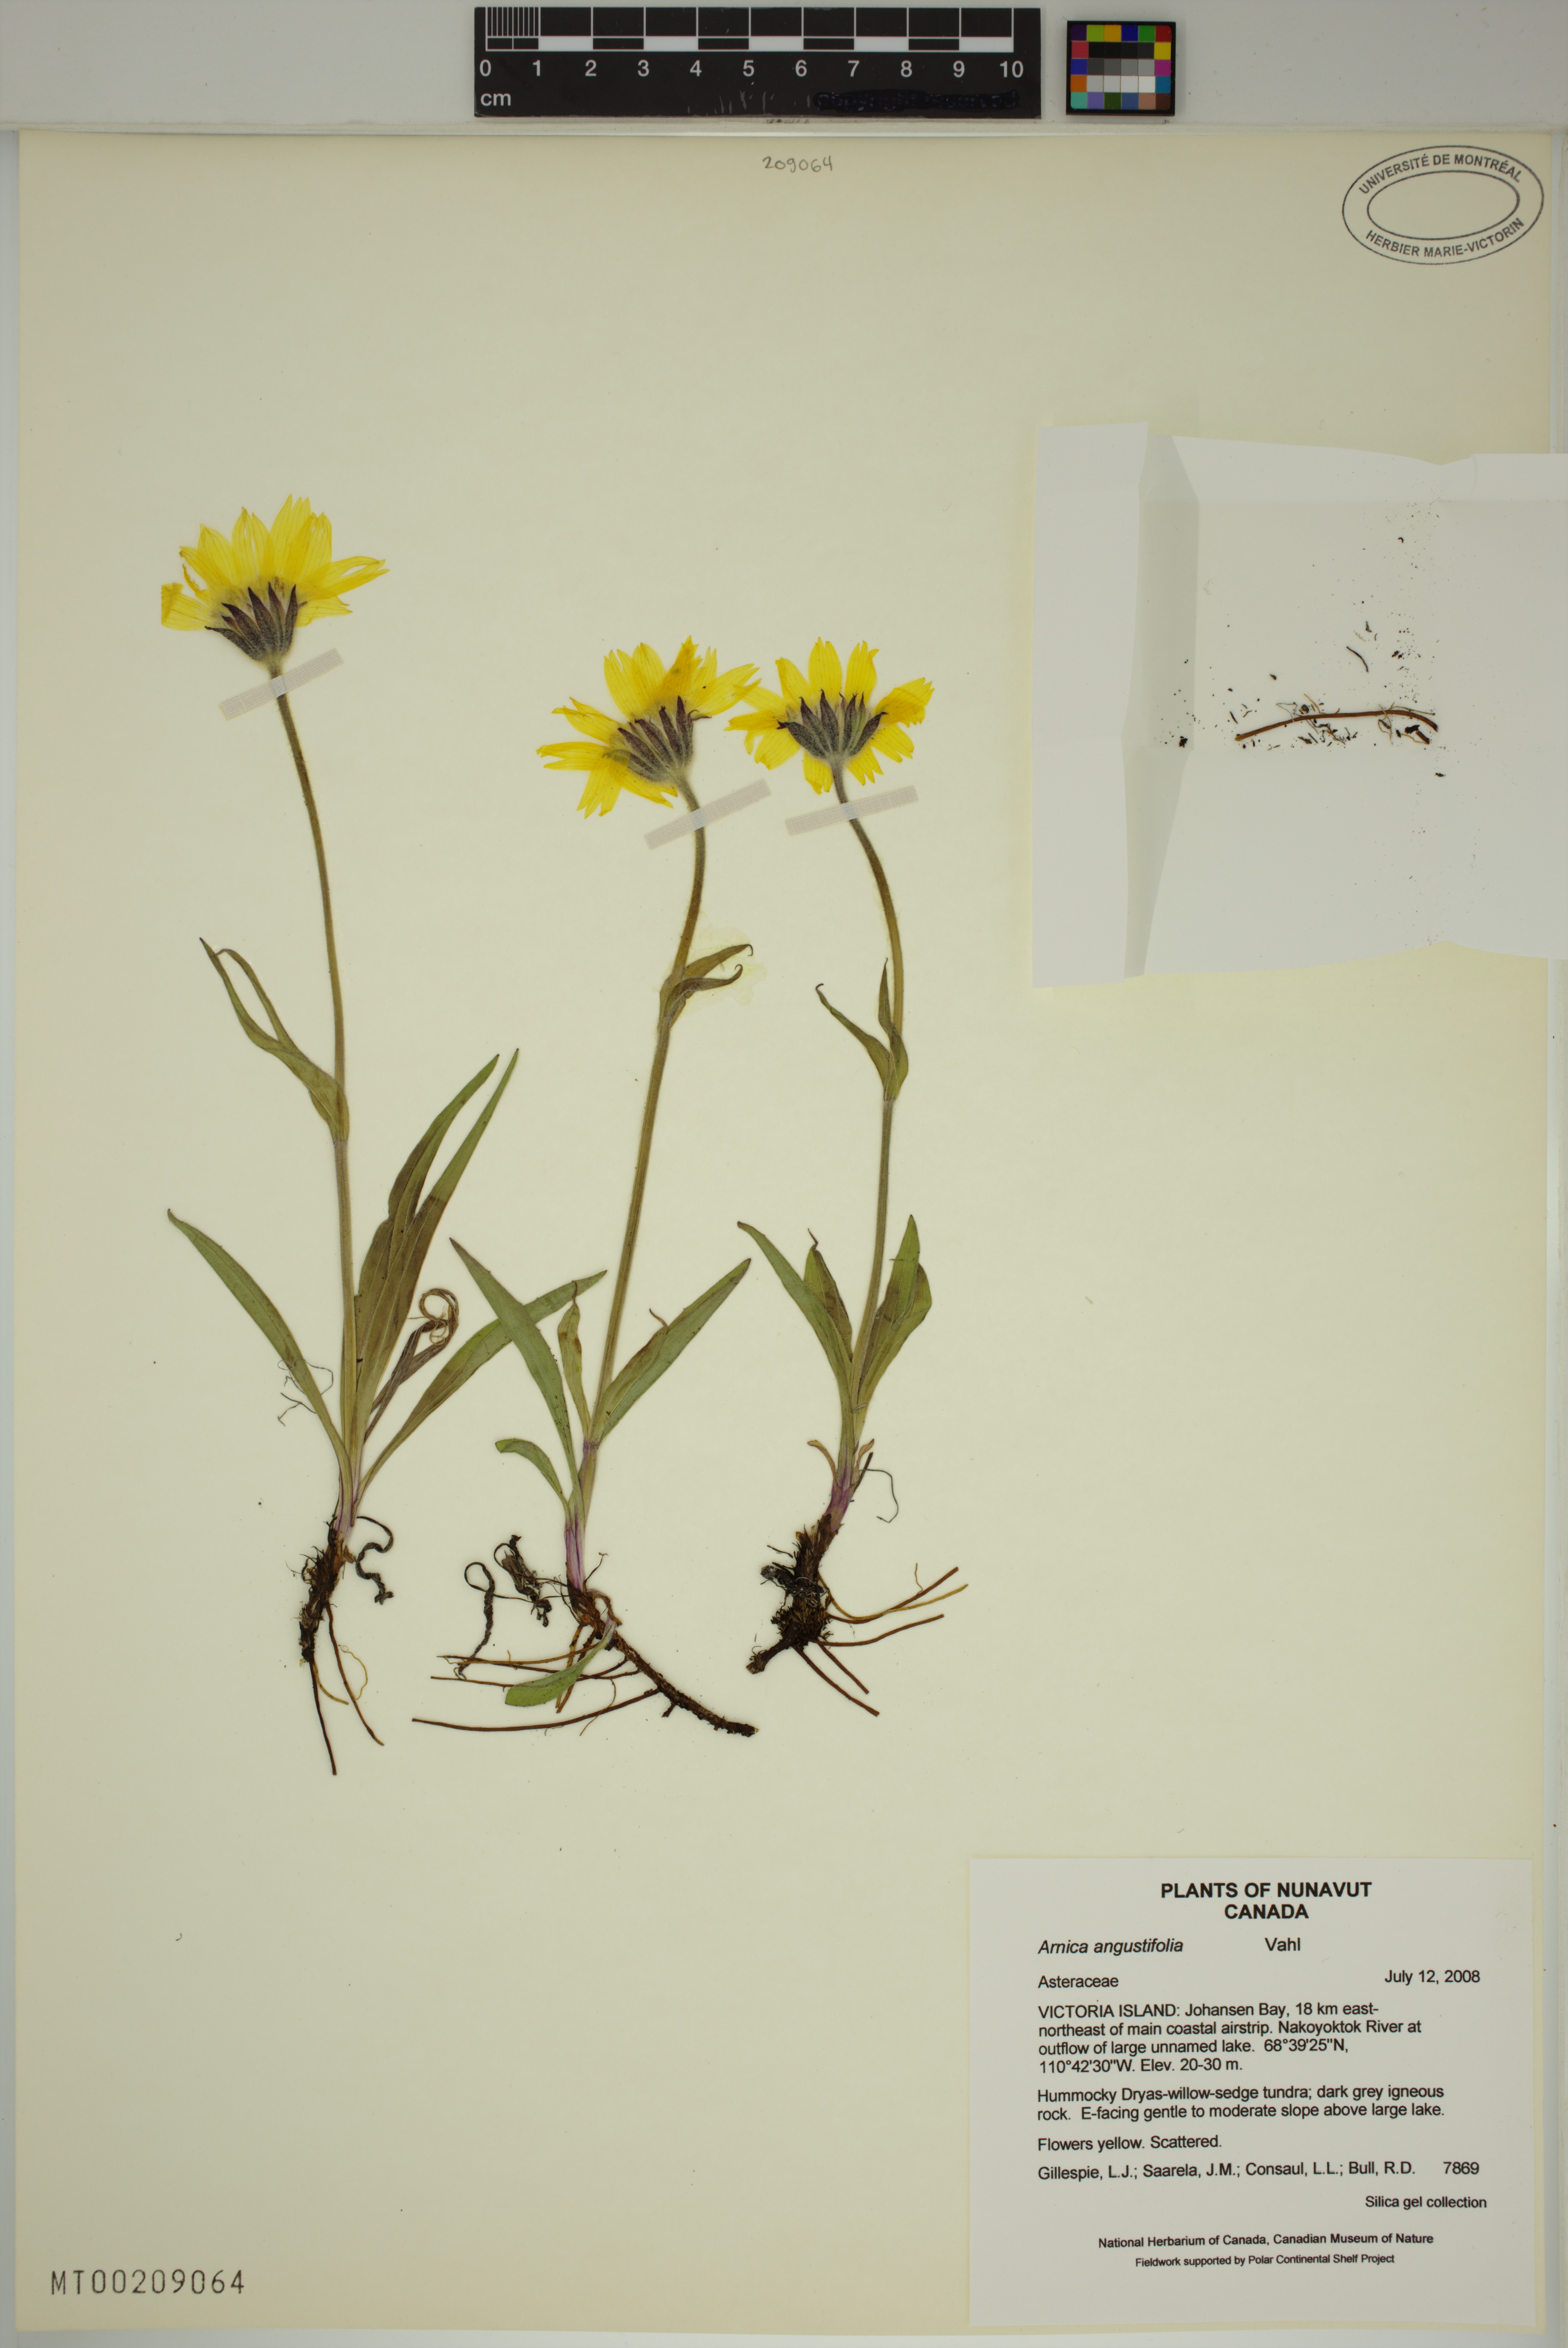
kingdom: Plantae
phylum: Tracheophyta
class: Magnoliopsida
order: Asterales
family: Asteraceae
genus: Arnica
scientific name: Arnica angustifolia
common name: Arctic arnica
